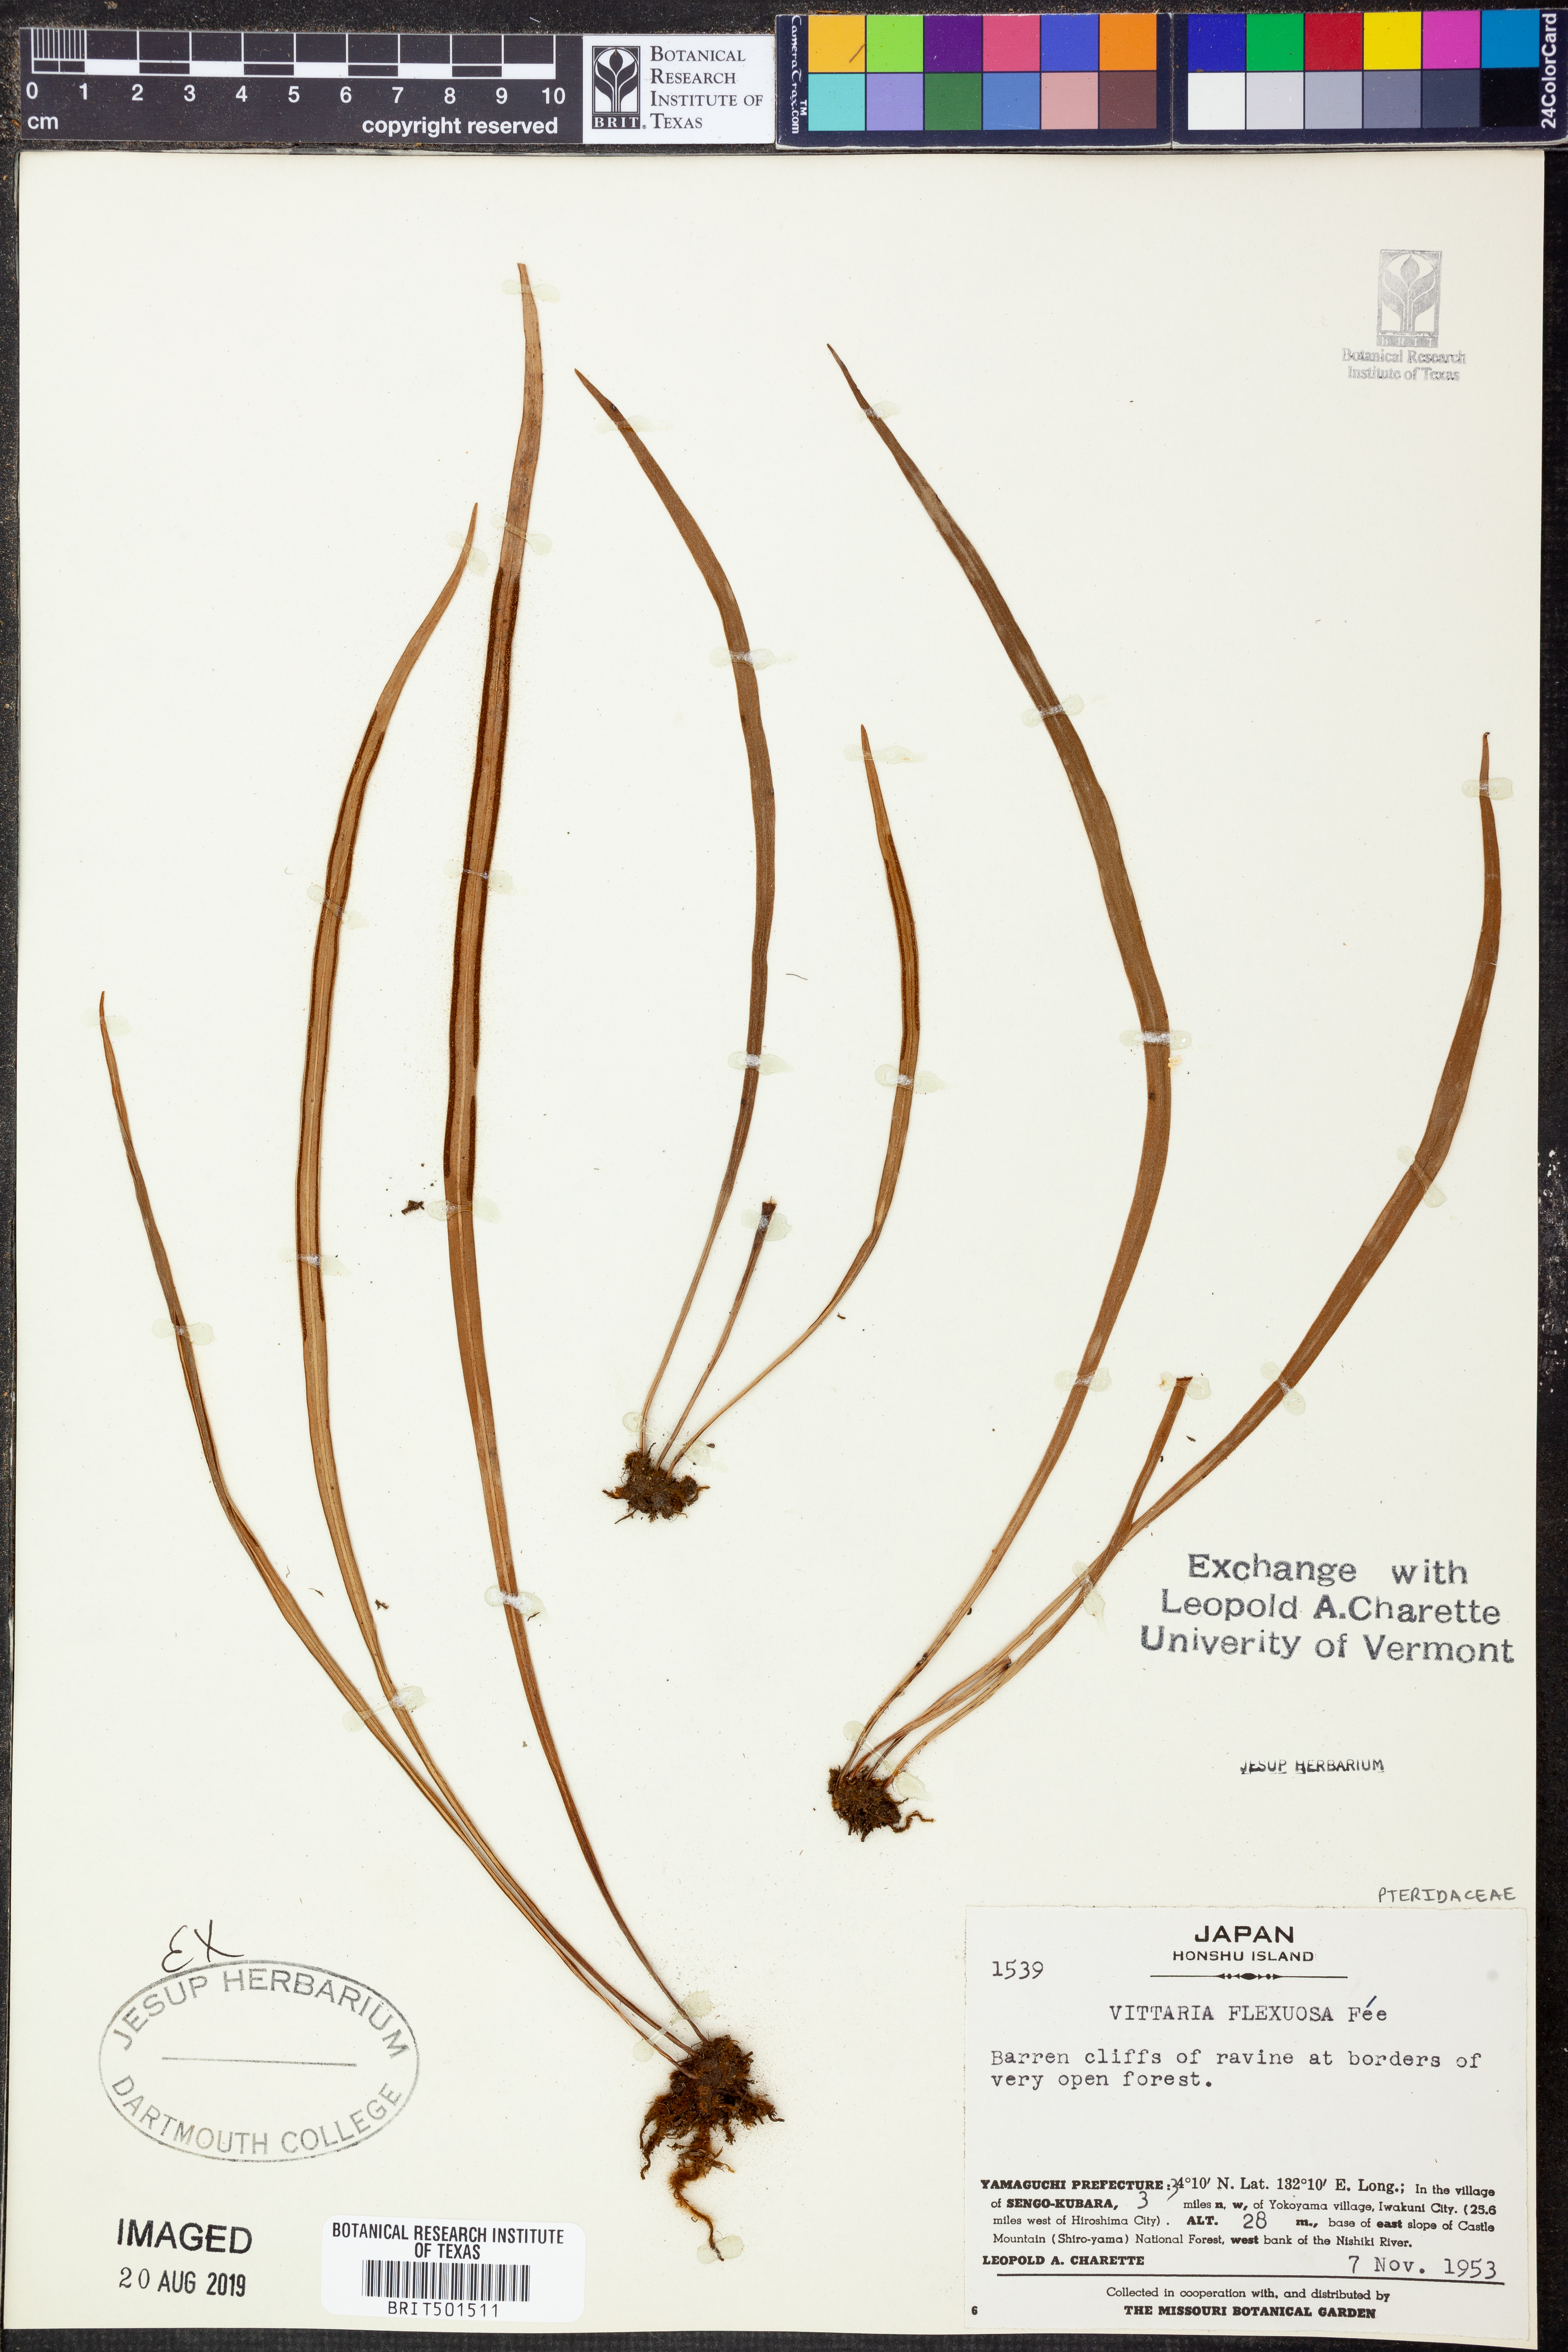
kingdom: Plantae
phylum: Tracheophyta
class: Polypodiopsida
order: Polypodiales
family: Pteridaceae
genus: Haplopteris
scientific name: Haplopteris flexuosa
